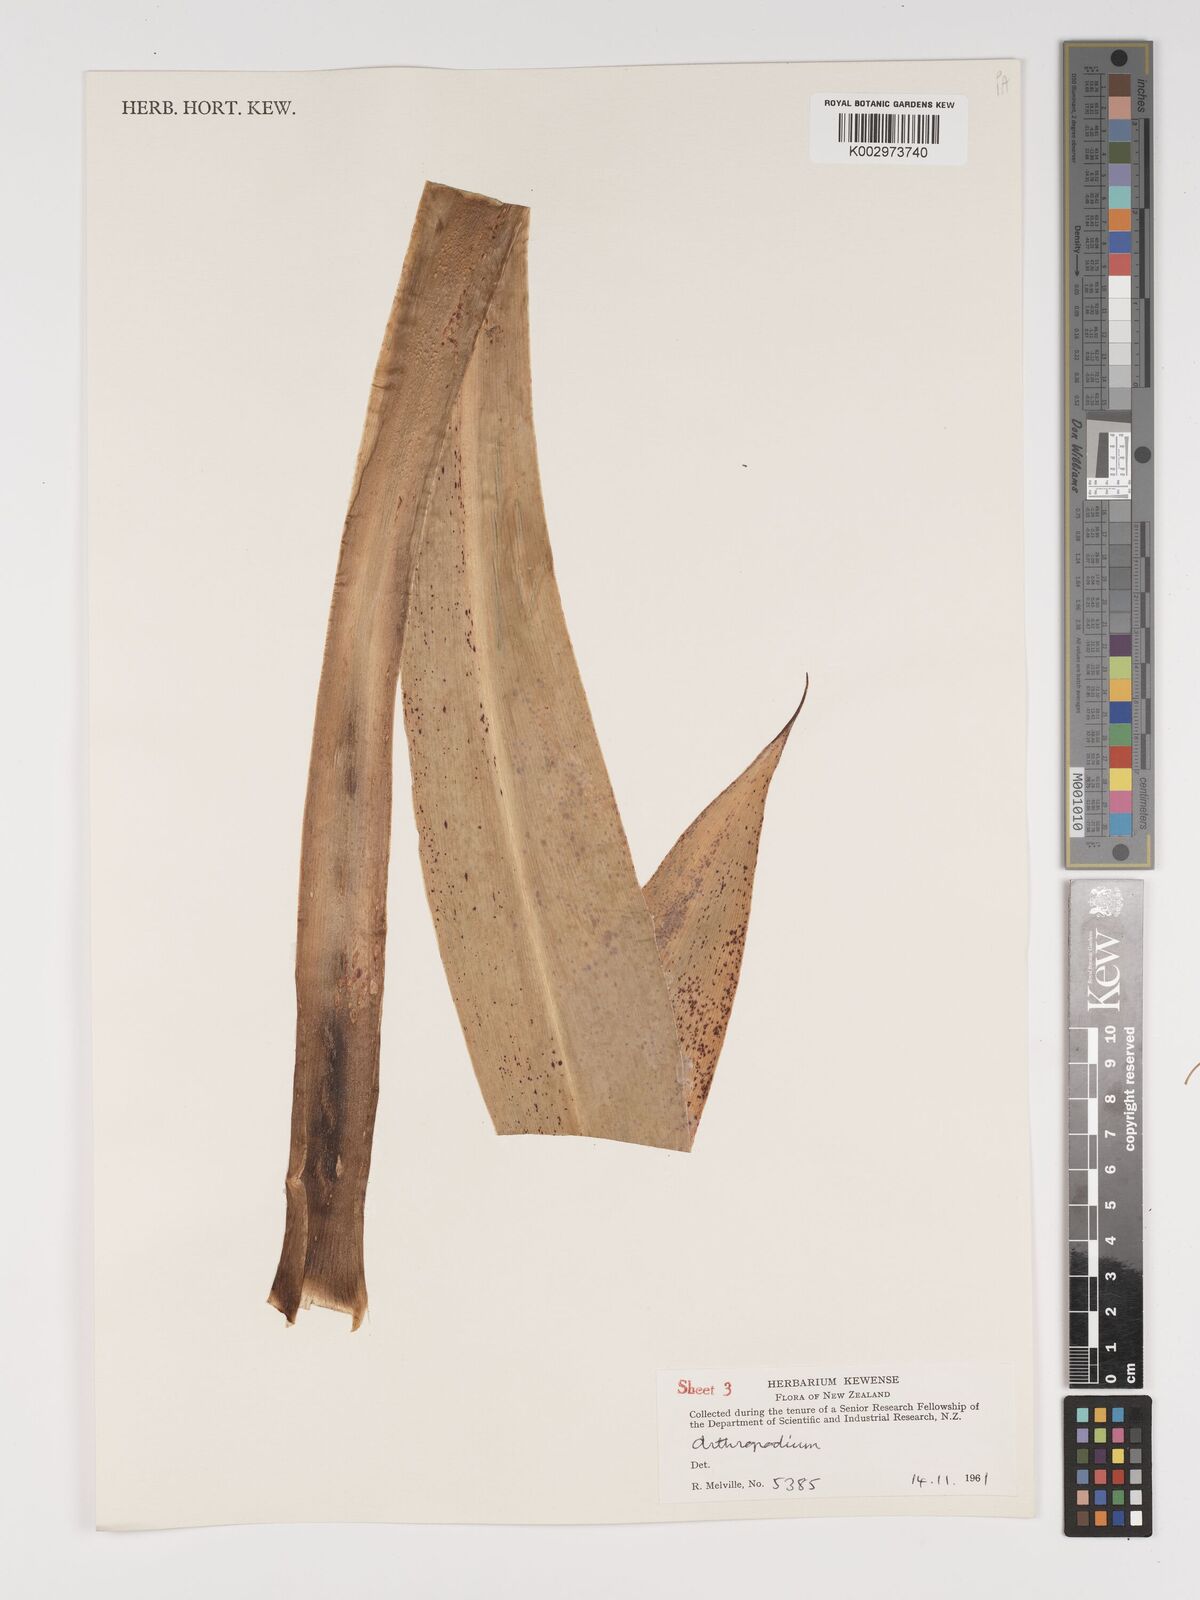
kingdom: Plantae
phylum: Tracheophyta
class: Liliopsida
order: Asparagales
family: Asparagaceae
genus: Arthropodium
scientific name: Arthropodium cirratum
